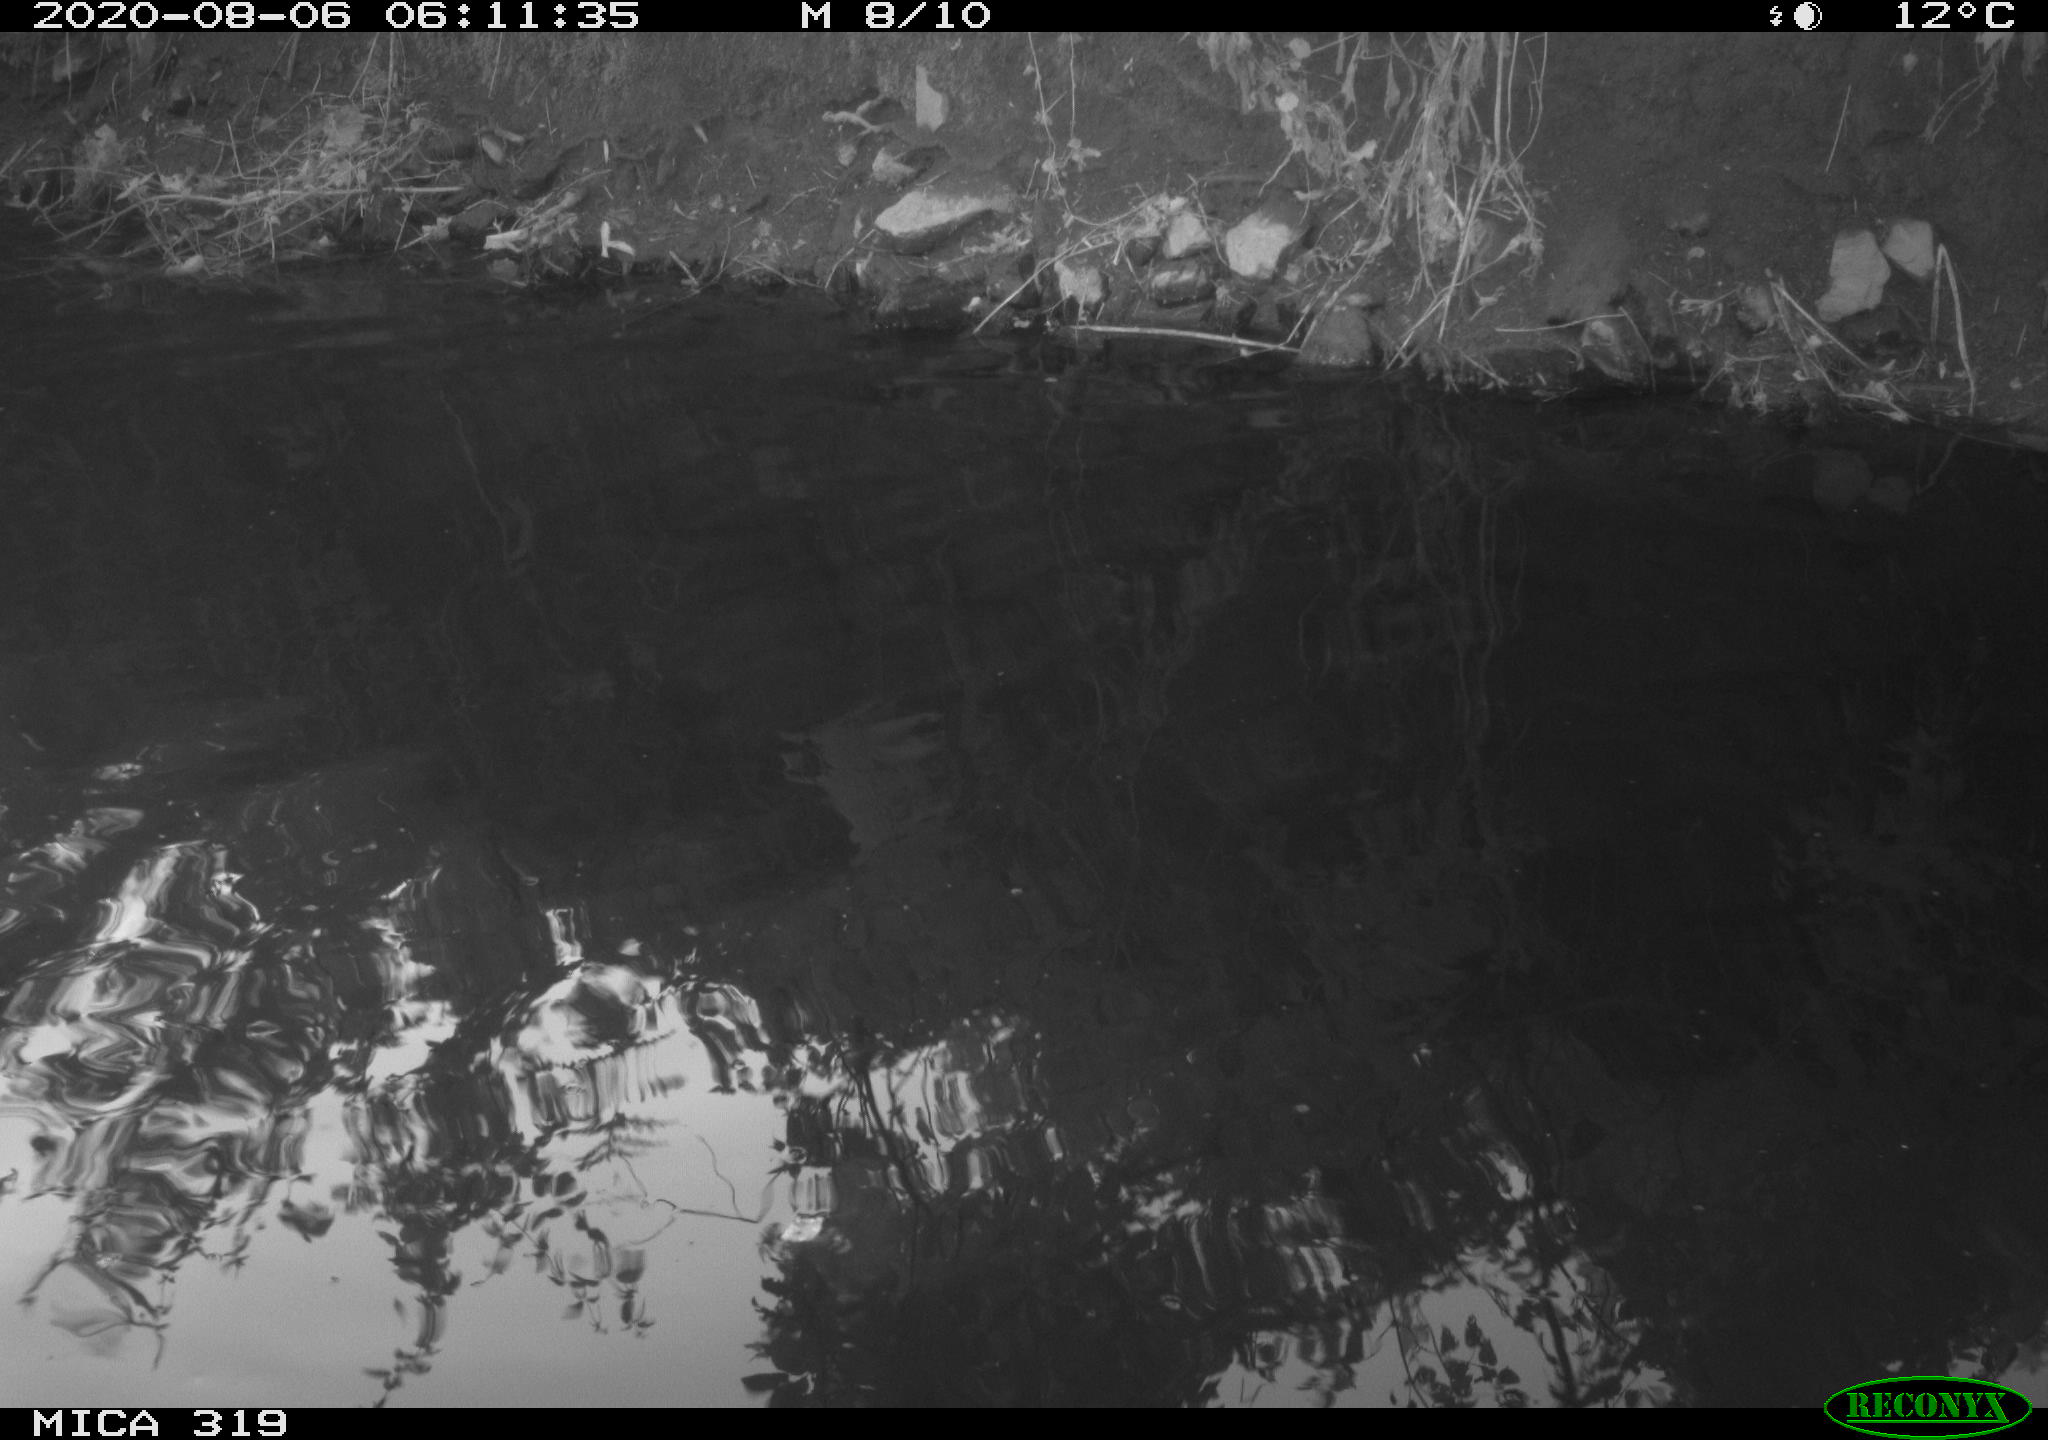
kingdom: Animalia
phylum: Chordata
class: Aves
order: Anseriformes
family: Anatidae
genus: Anas
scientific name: Anas platyrhynchos
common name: Mallard
